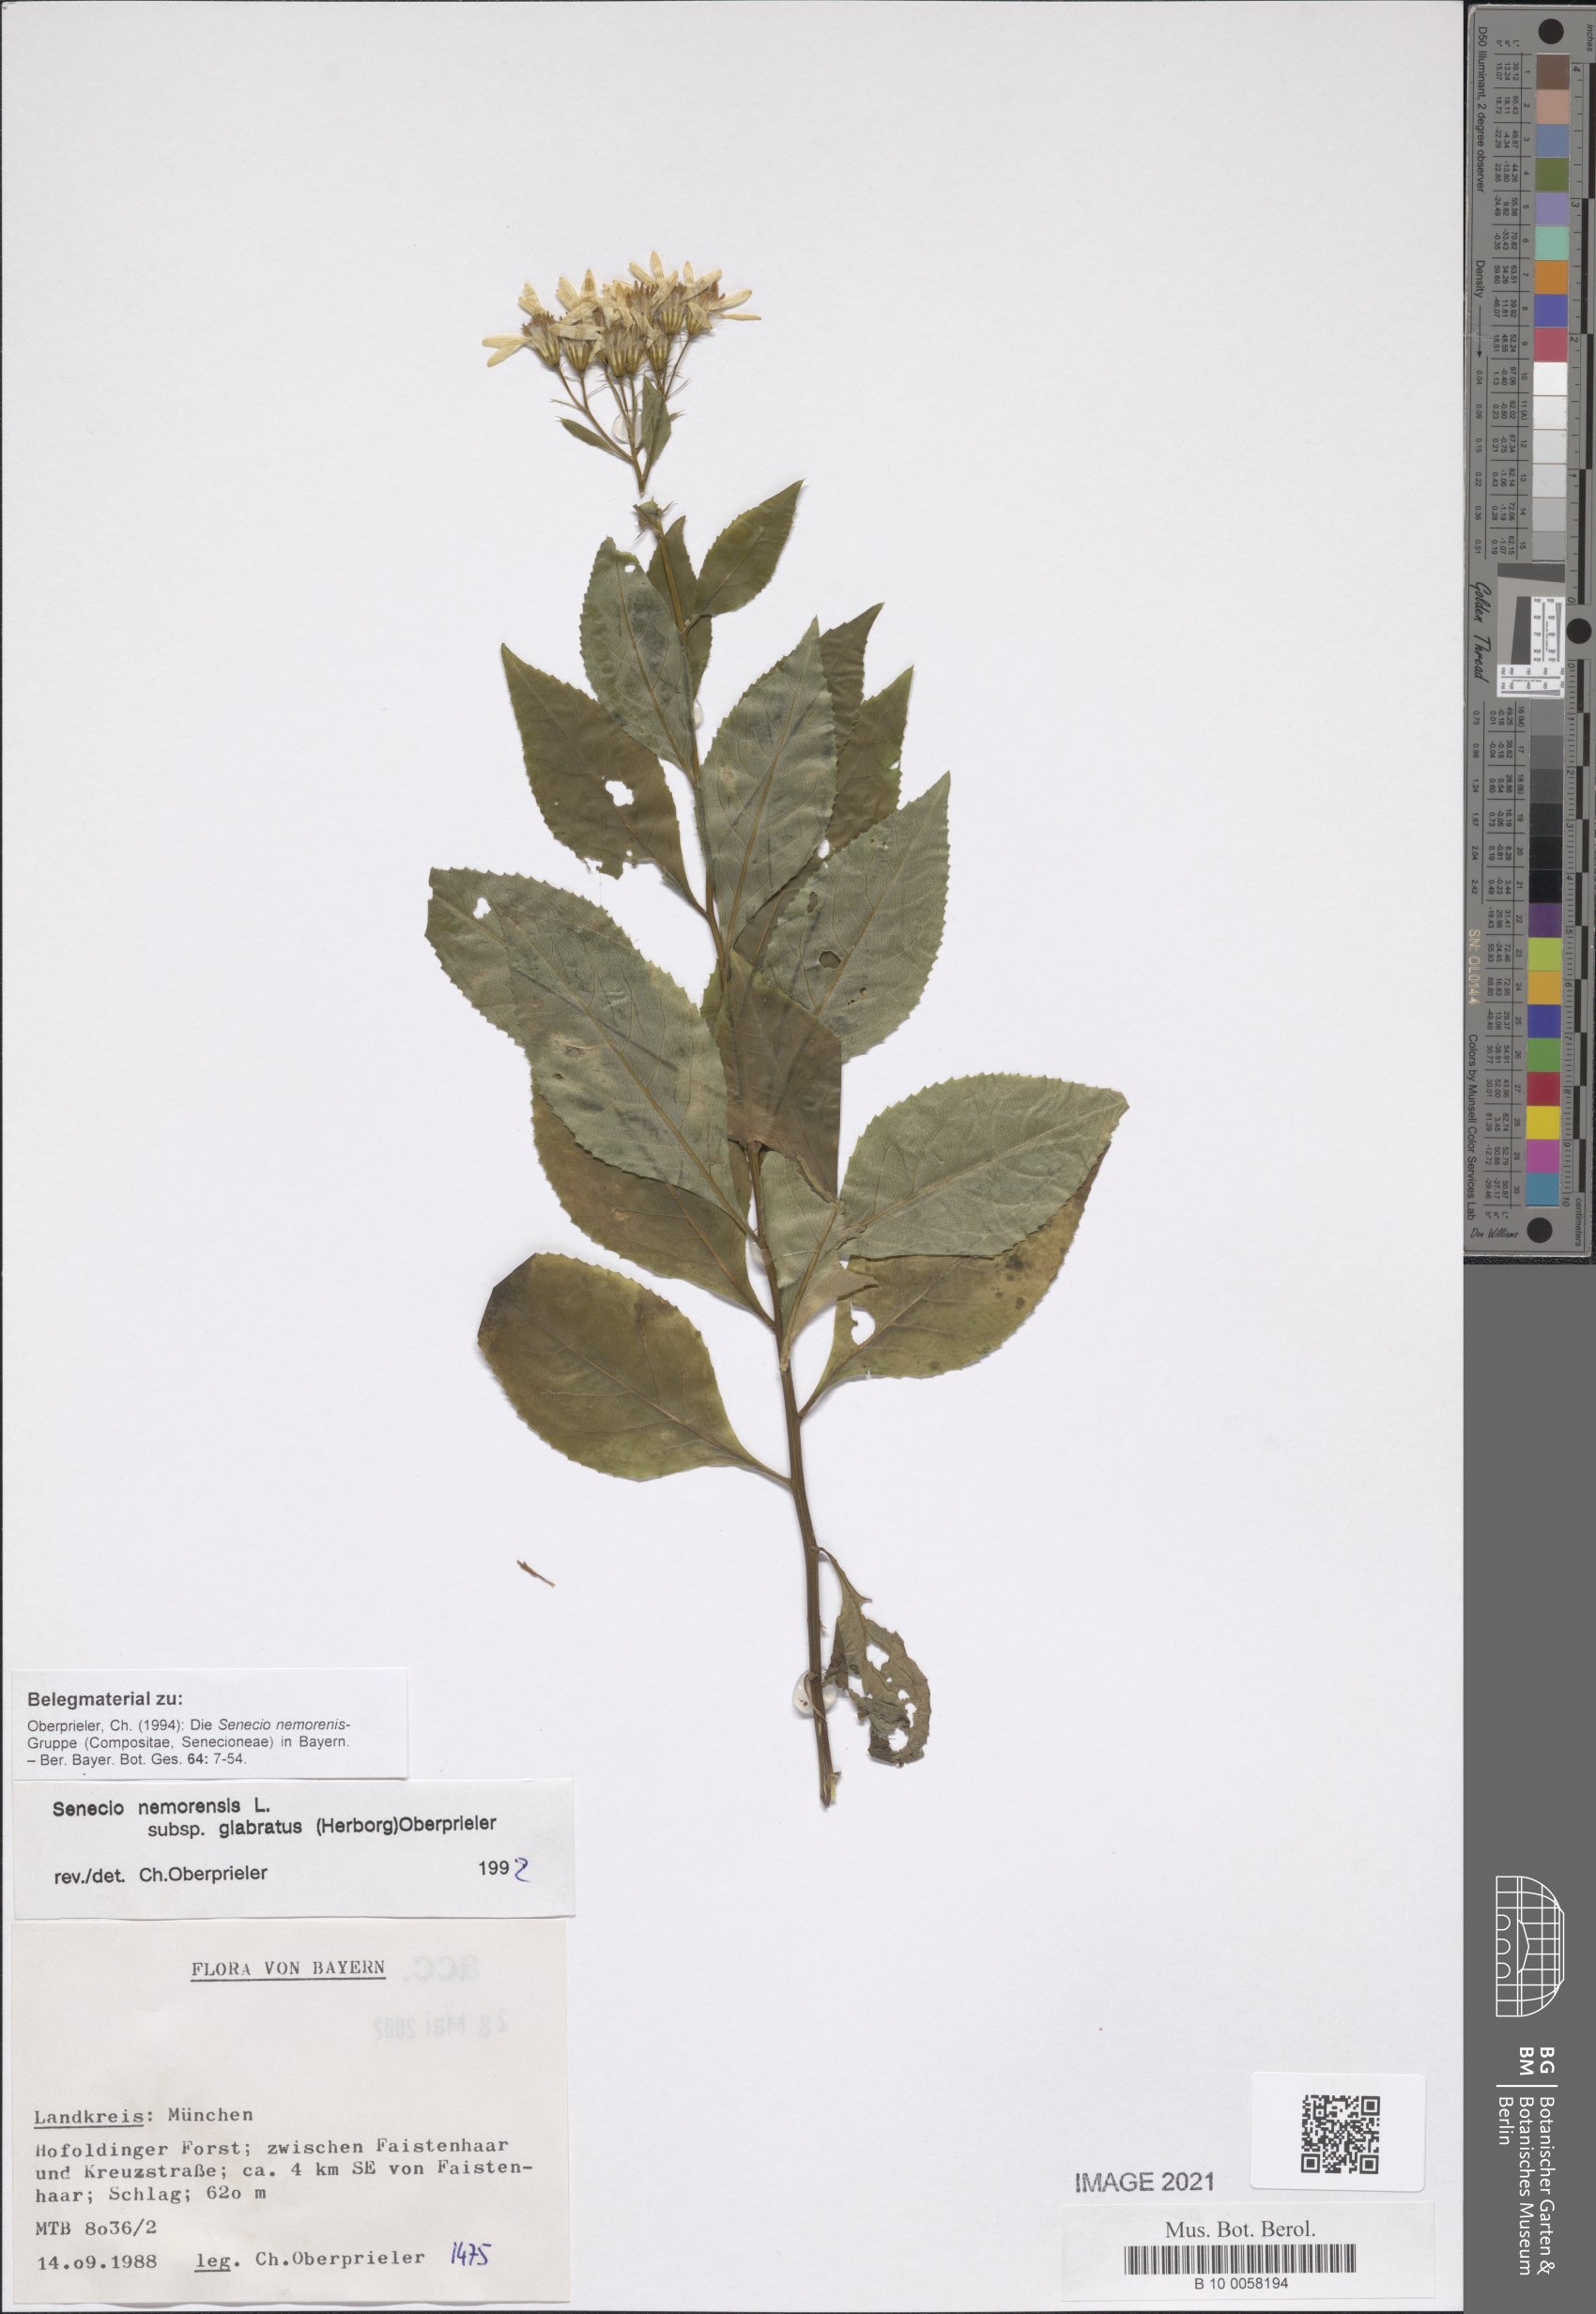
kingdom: Plantae
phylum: Tracheophyta
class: Magnoliopsida
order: Asterales
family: Asteraceae
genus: Senecio
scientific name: Senecio germanicus
